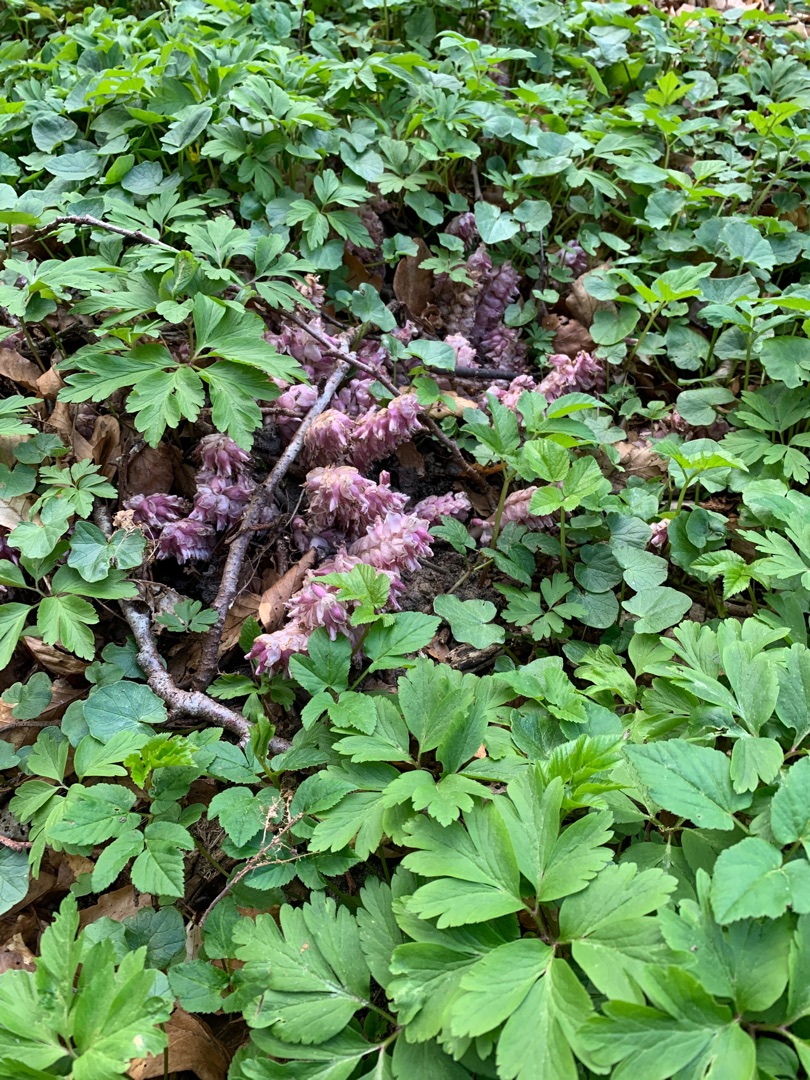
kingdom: Plantae
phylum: Tracheophyta
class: Magnoliopsida
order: Lamiales
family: Orobanchaceae
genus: Lathraea
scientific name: Lathraea squamaria
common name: Skælrod
